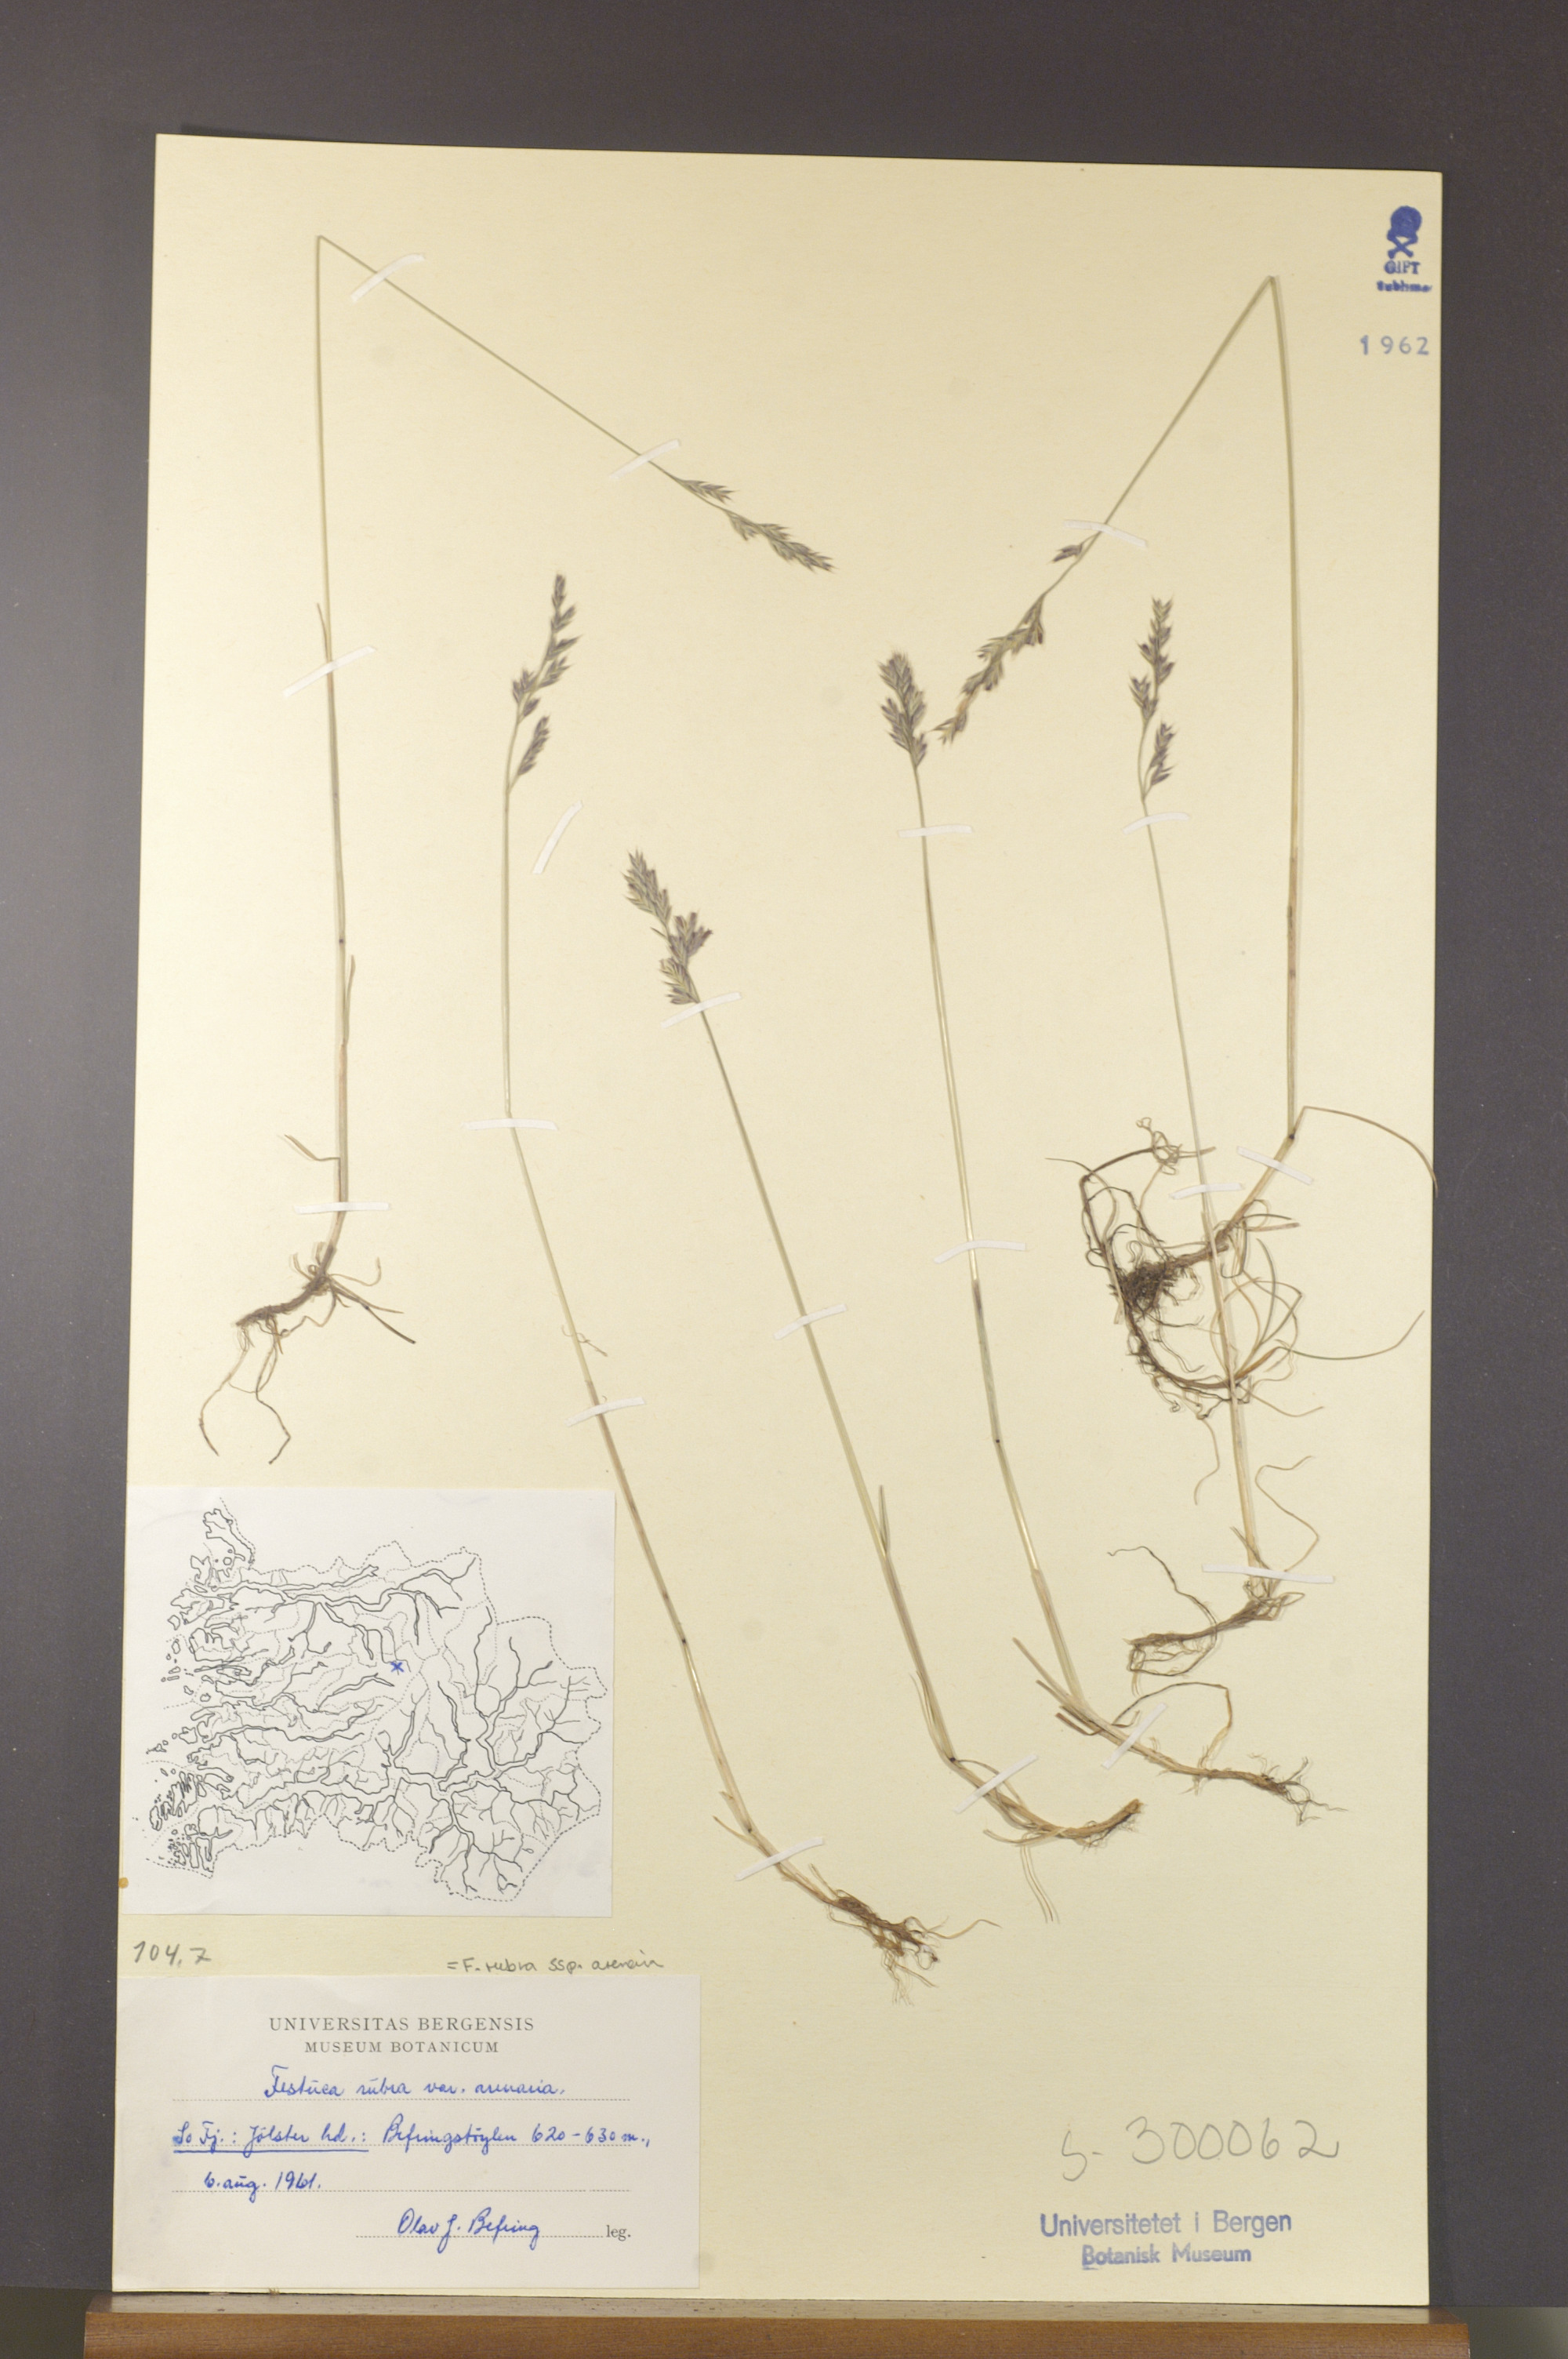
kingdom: Plantae
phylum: Tracheophyta
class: Liliopsida
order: Poales
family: Poaceae
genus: Festuca
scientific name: Festuca rubra
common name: Red fescue
